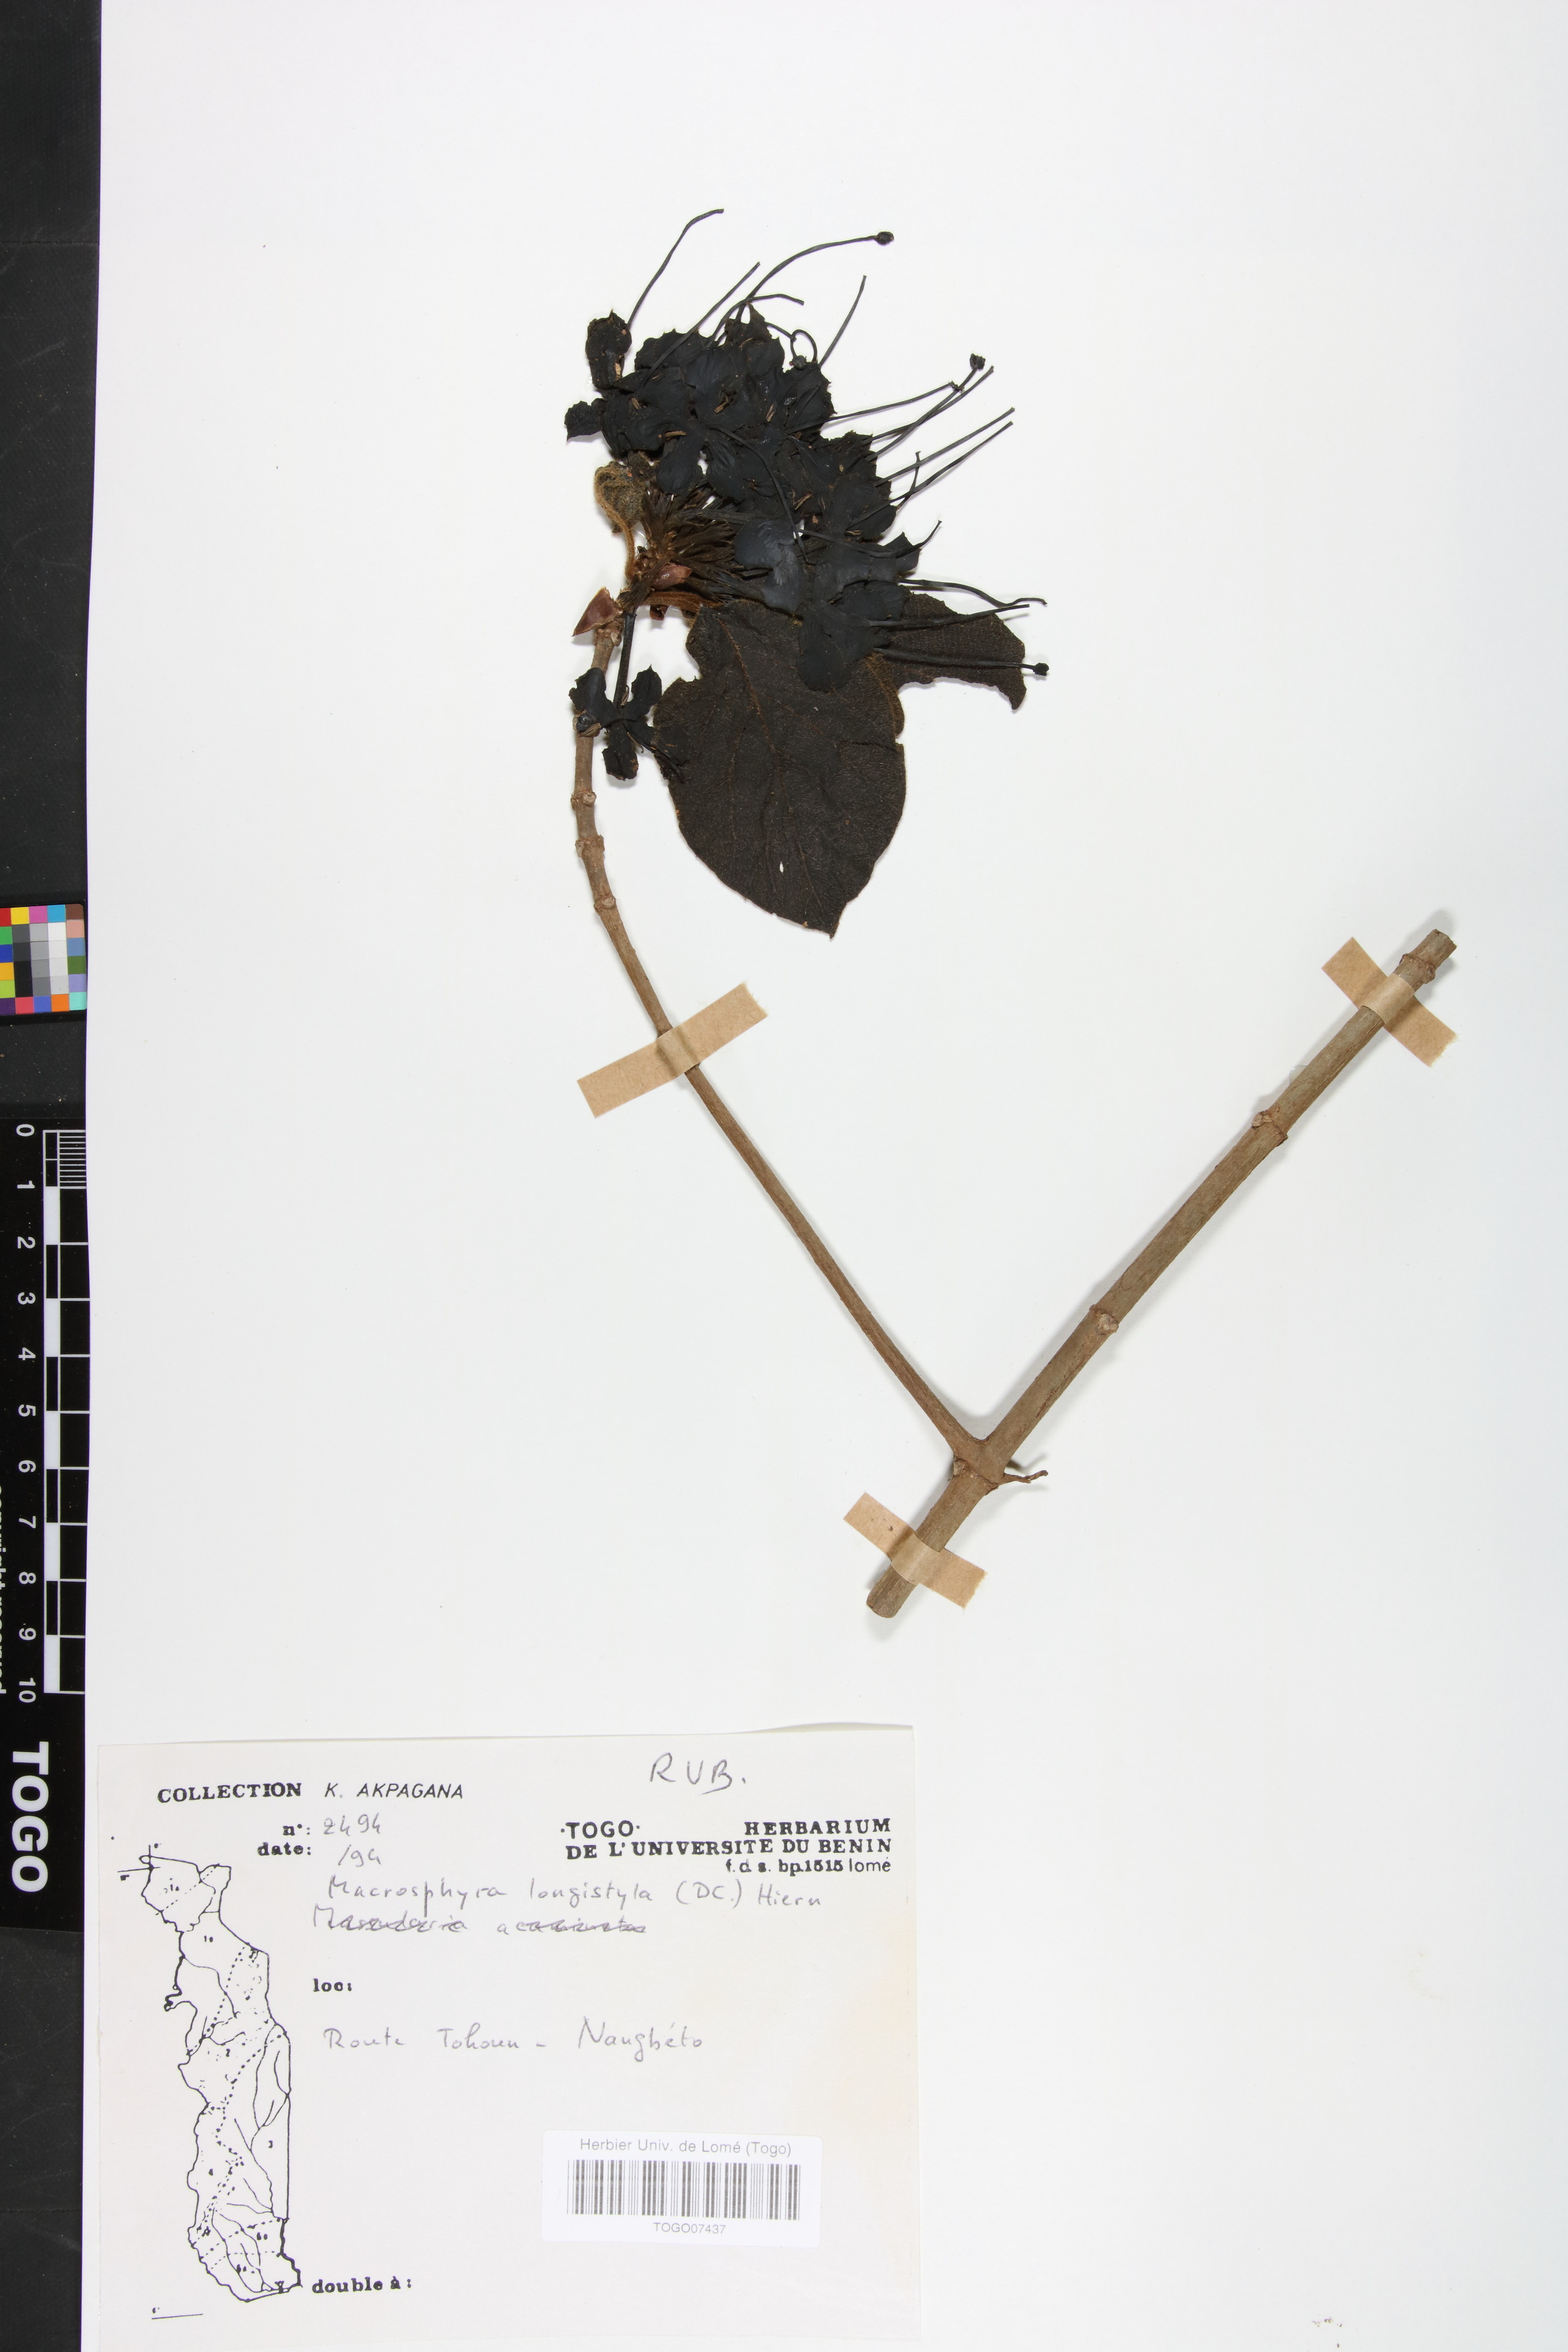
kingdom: Plantae
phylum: Tracheophyta
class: Magnoliopsida
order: Gentianales
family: Rubiaceae
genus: Macrosphyra
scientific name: Macrosphyra longistyla
